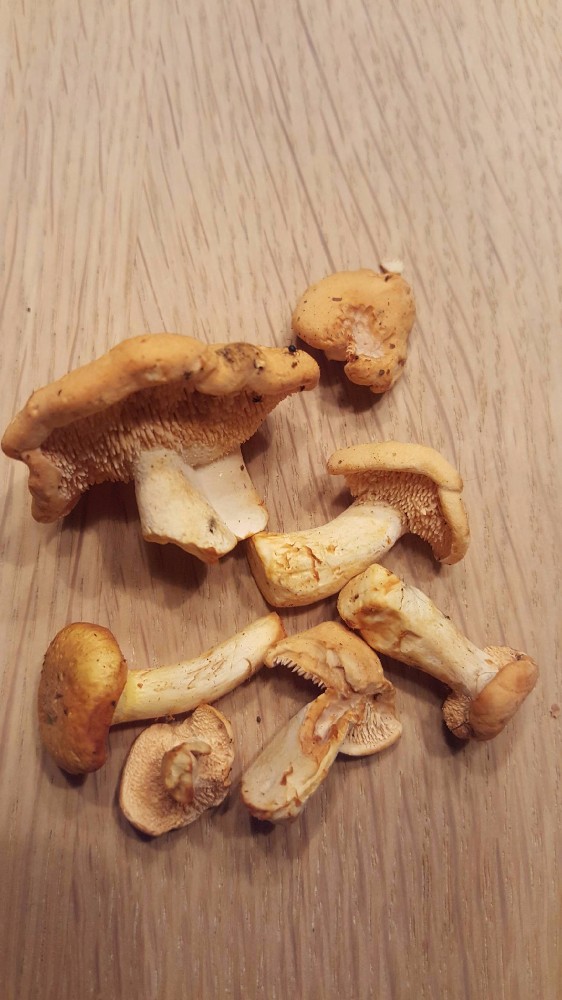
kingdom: Fungi
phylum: Basidiomycota
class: Agaricomycetes
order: Cantharellales
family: Hydnaceae
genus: Hydnum
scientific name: Hydnum rufescens
